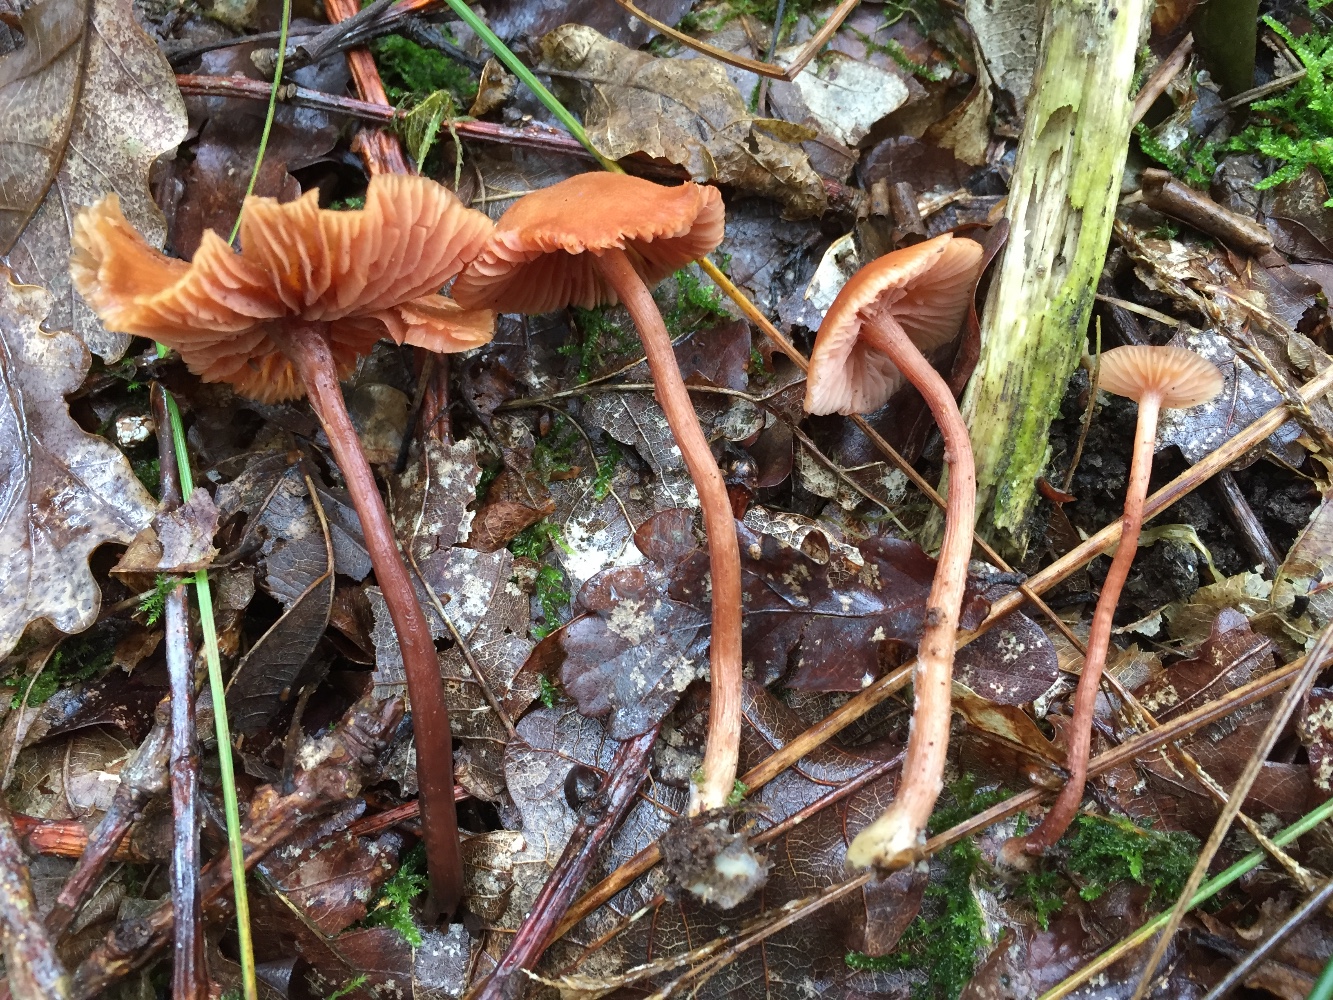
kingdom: Fungi
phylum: Basidiomycota
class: Agaricomycetes
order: Agaricales
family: Hydnangiaceae
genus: Laccaria
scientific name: Laccaria laccata
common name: rød ametysthat
